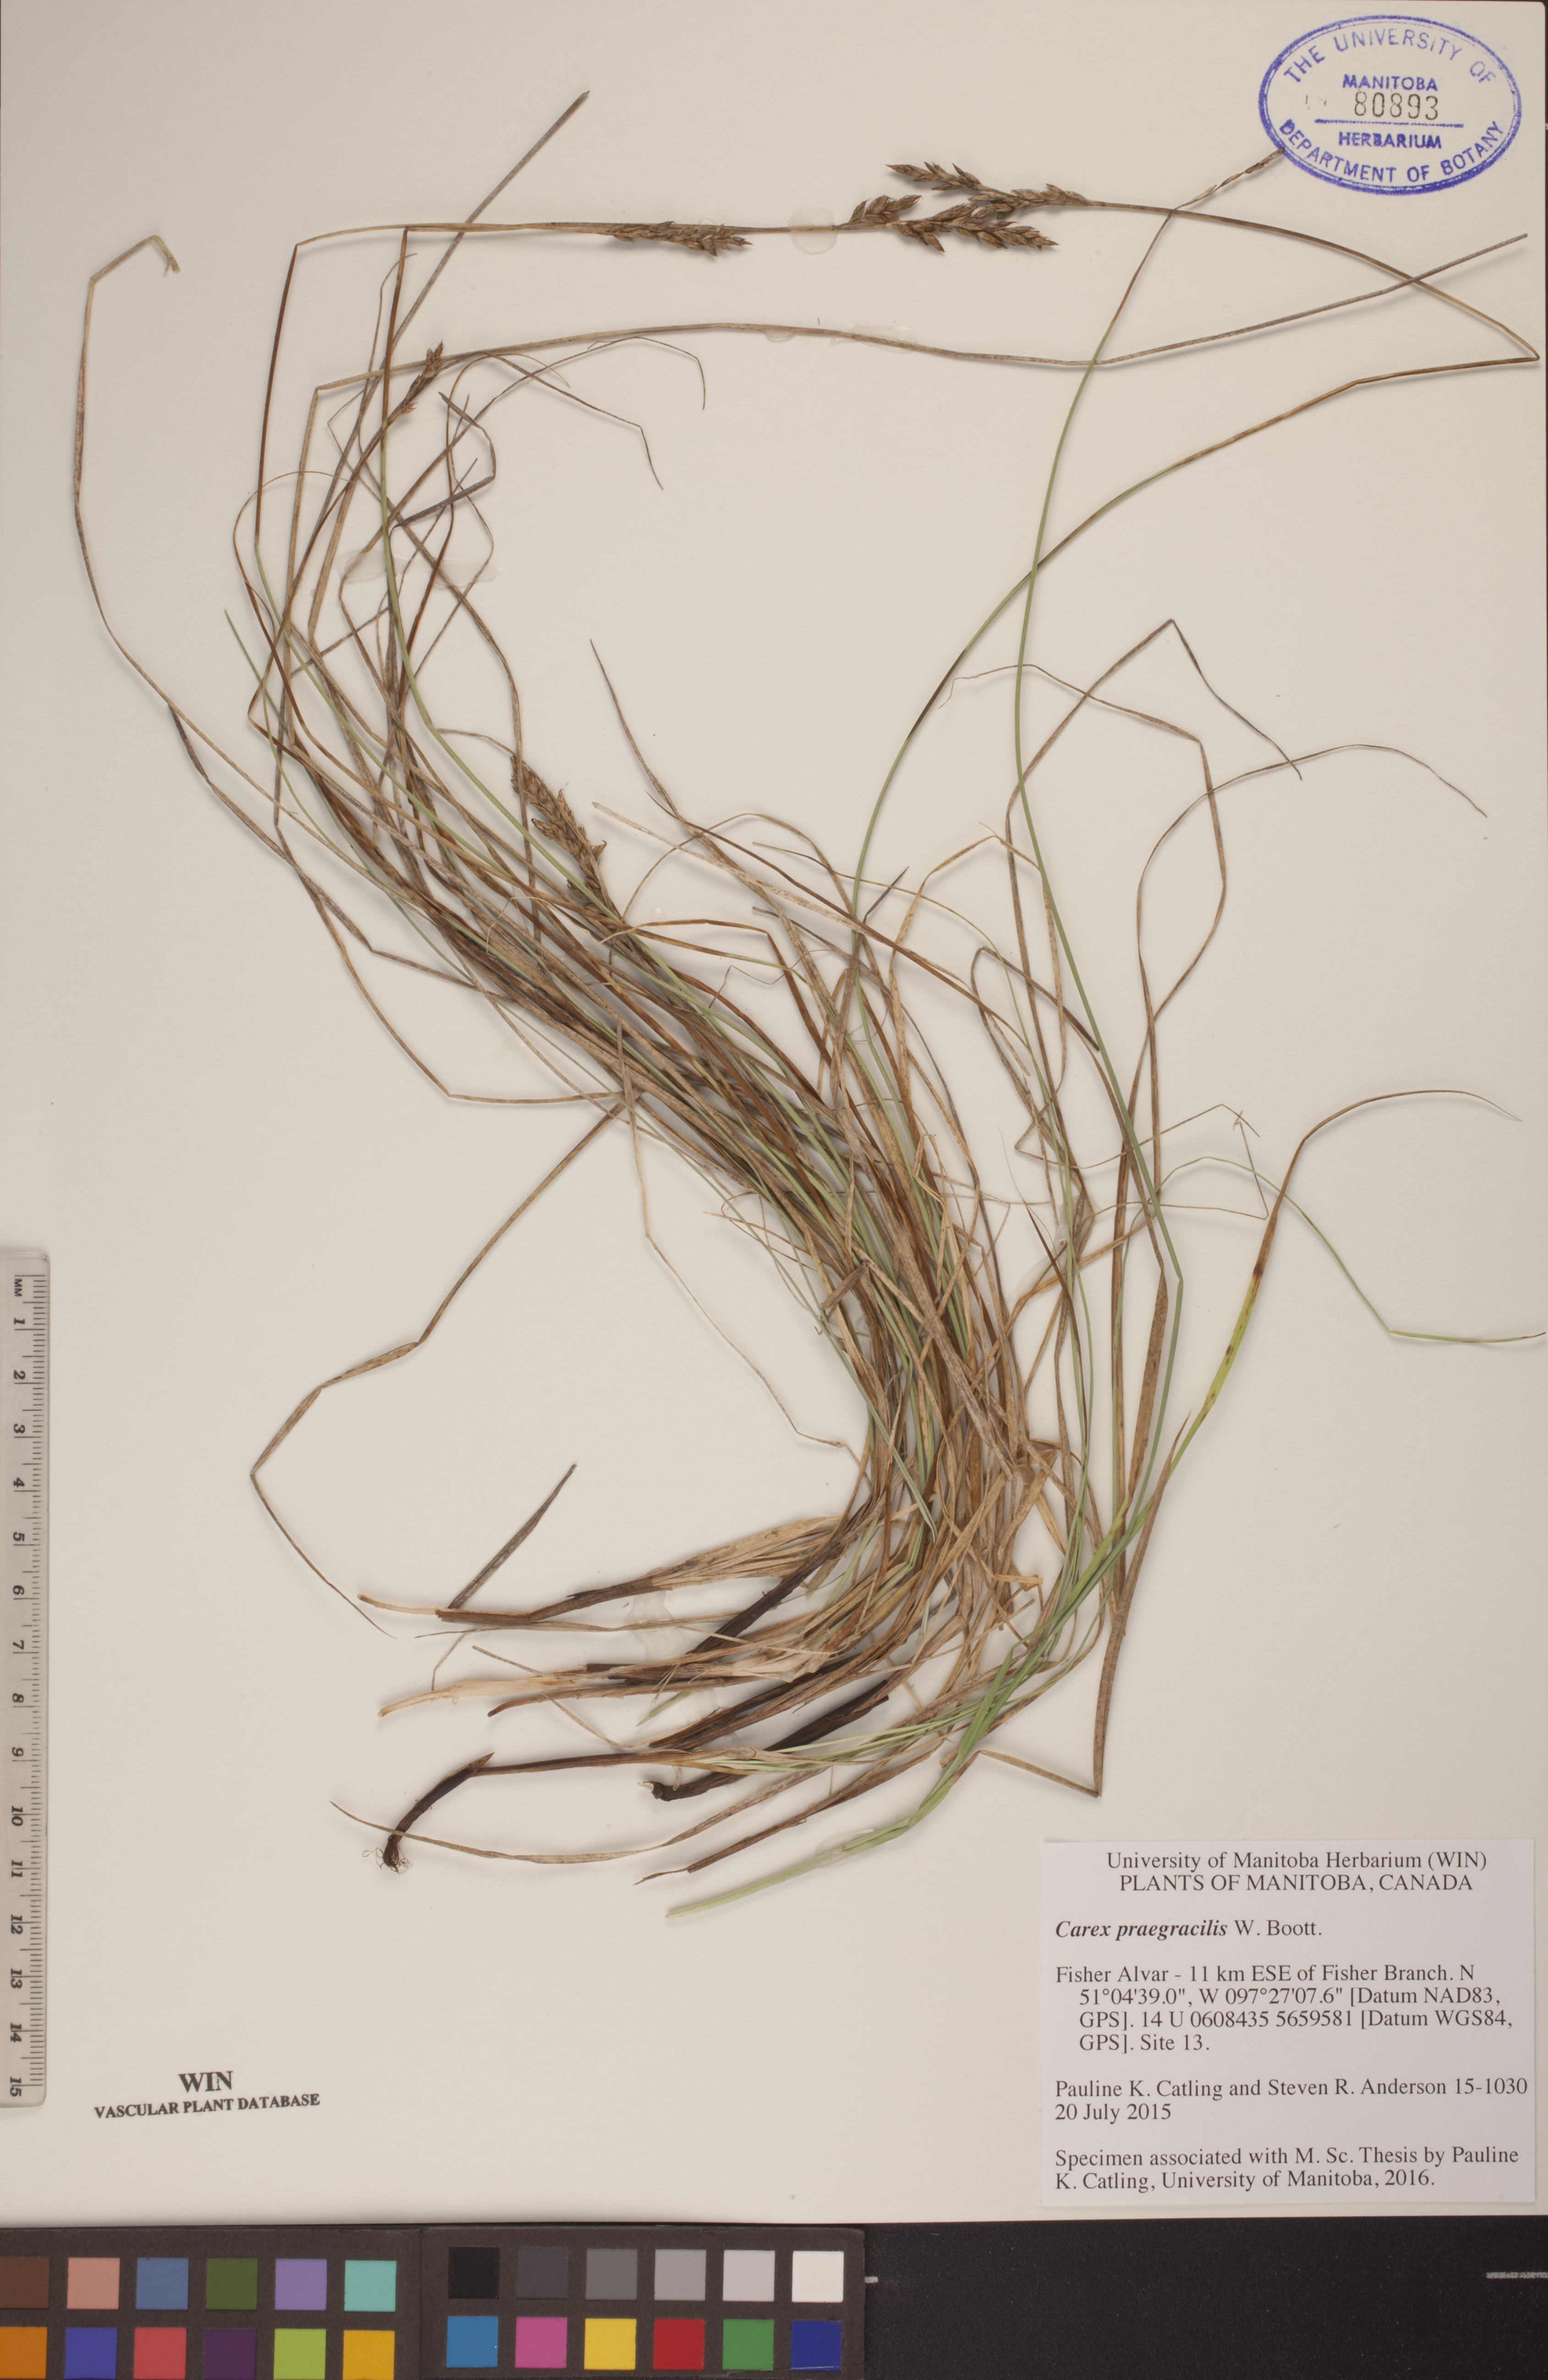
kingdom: Plantae
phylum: Tracheophyta
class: Liliopsida
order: Poales
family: Cyperaceae
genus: Carex
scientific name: Carex praegracilis
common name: Black creeper sedge
